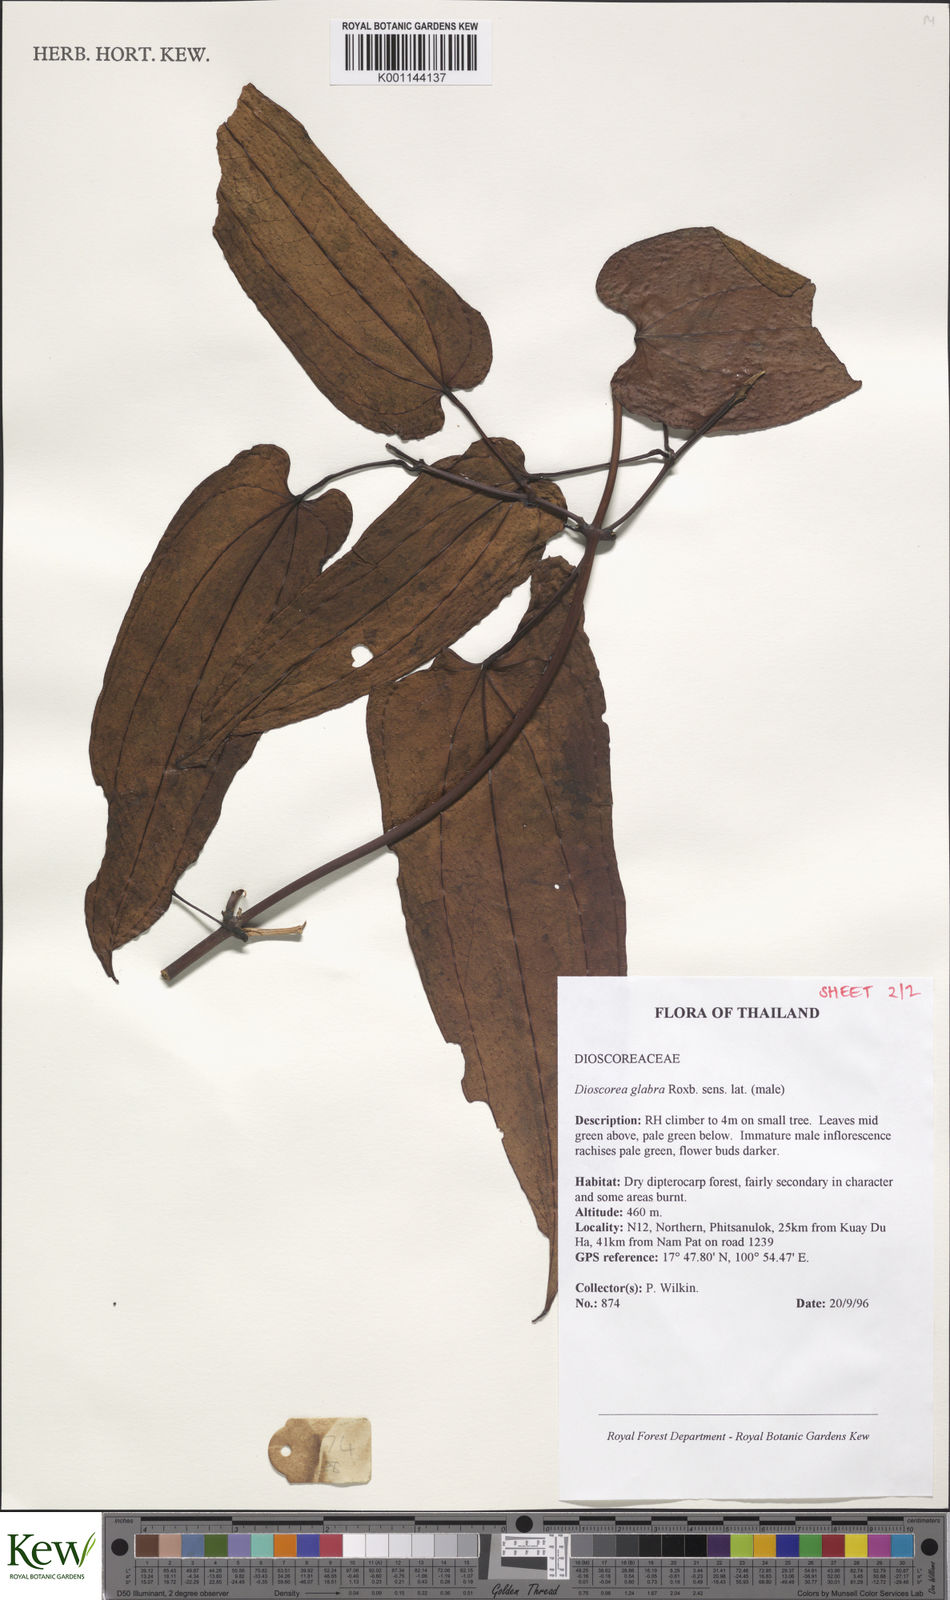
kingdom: Plantae
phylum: Tracheophyta
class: Liliopsida
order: Dioscoreales
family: Dioscoreaceae
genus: Dioscorea
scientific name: Dioscorea glabra
